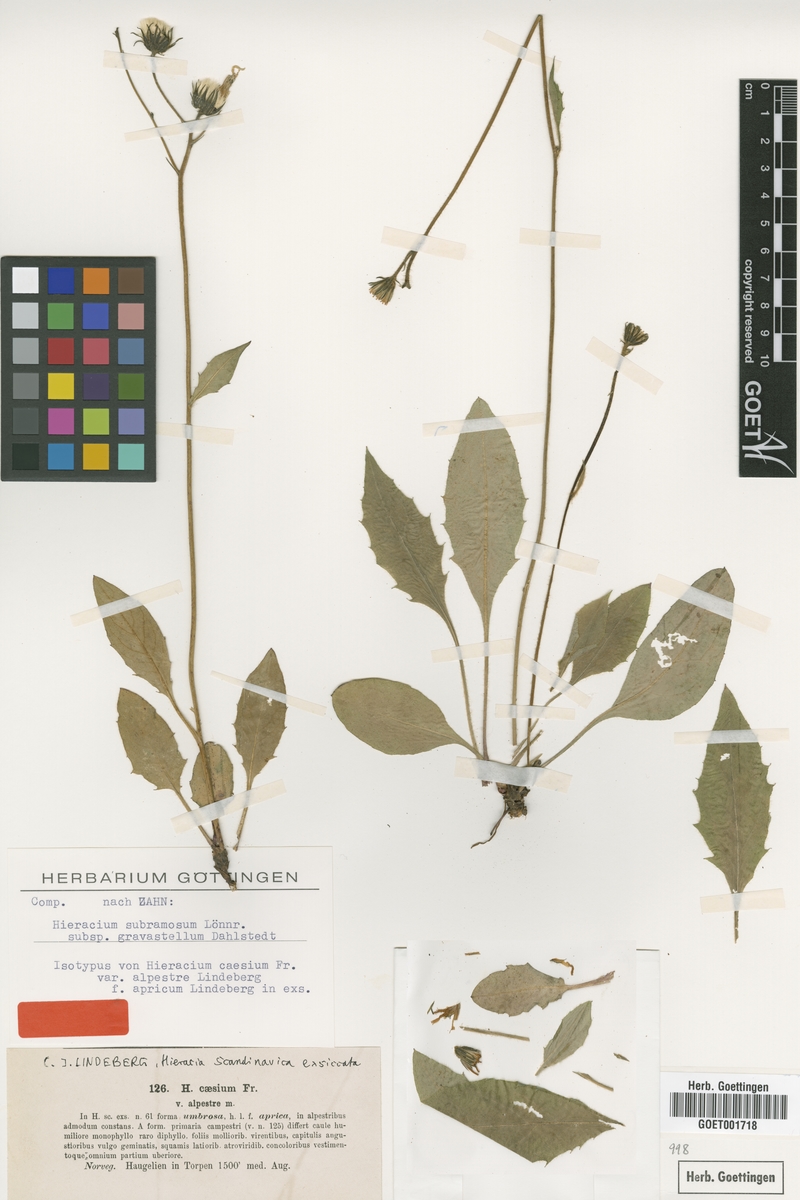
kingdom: Plantae
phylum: Tracheophyta
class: Magnoliopsida
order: Asterales
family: Asteraceae
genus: Hieracium
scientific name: Hieracium constringens
